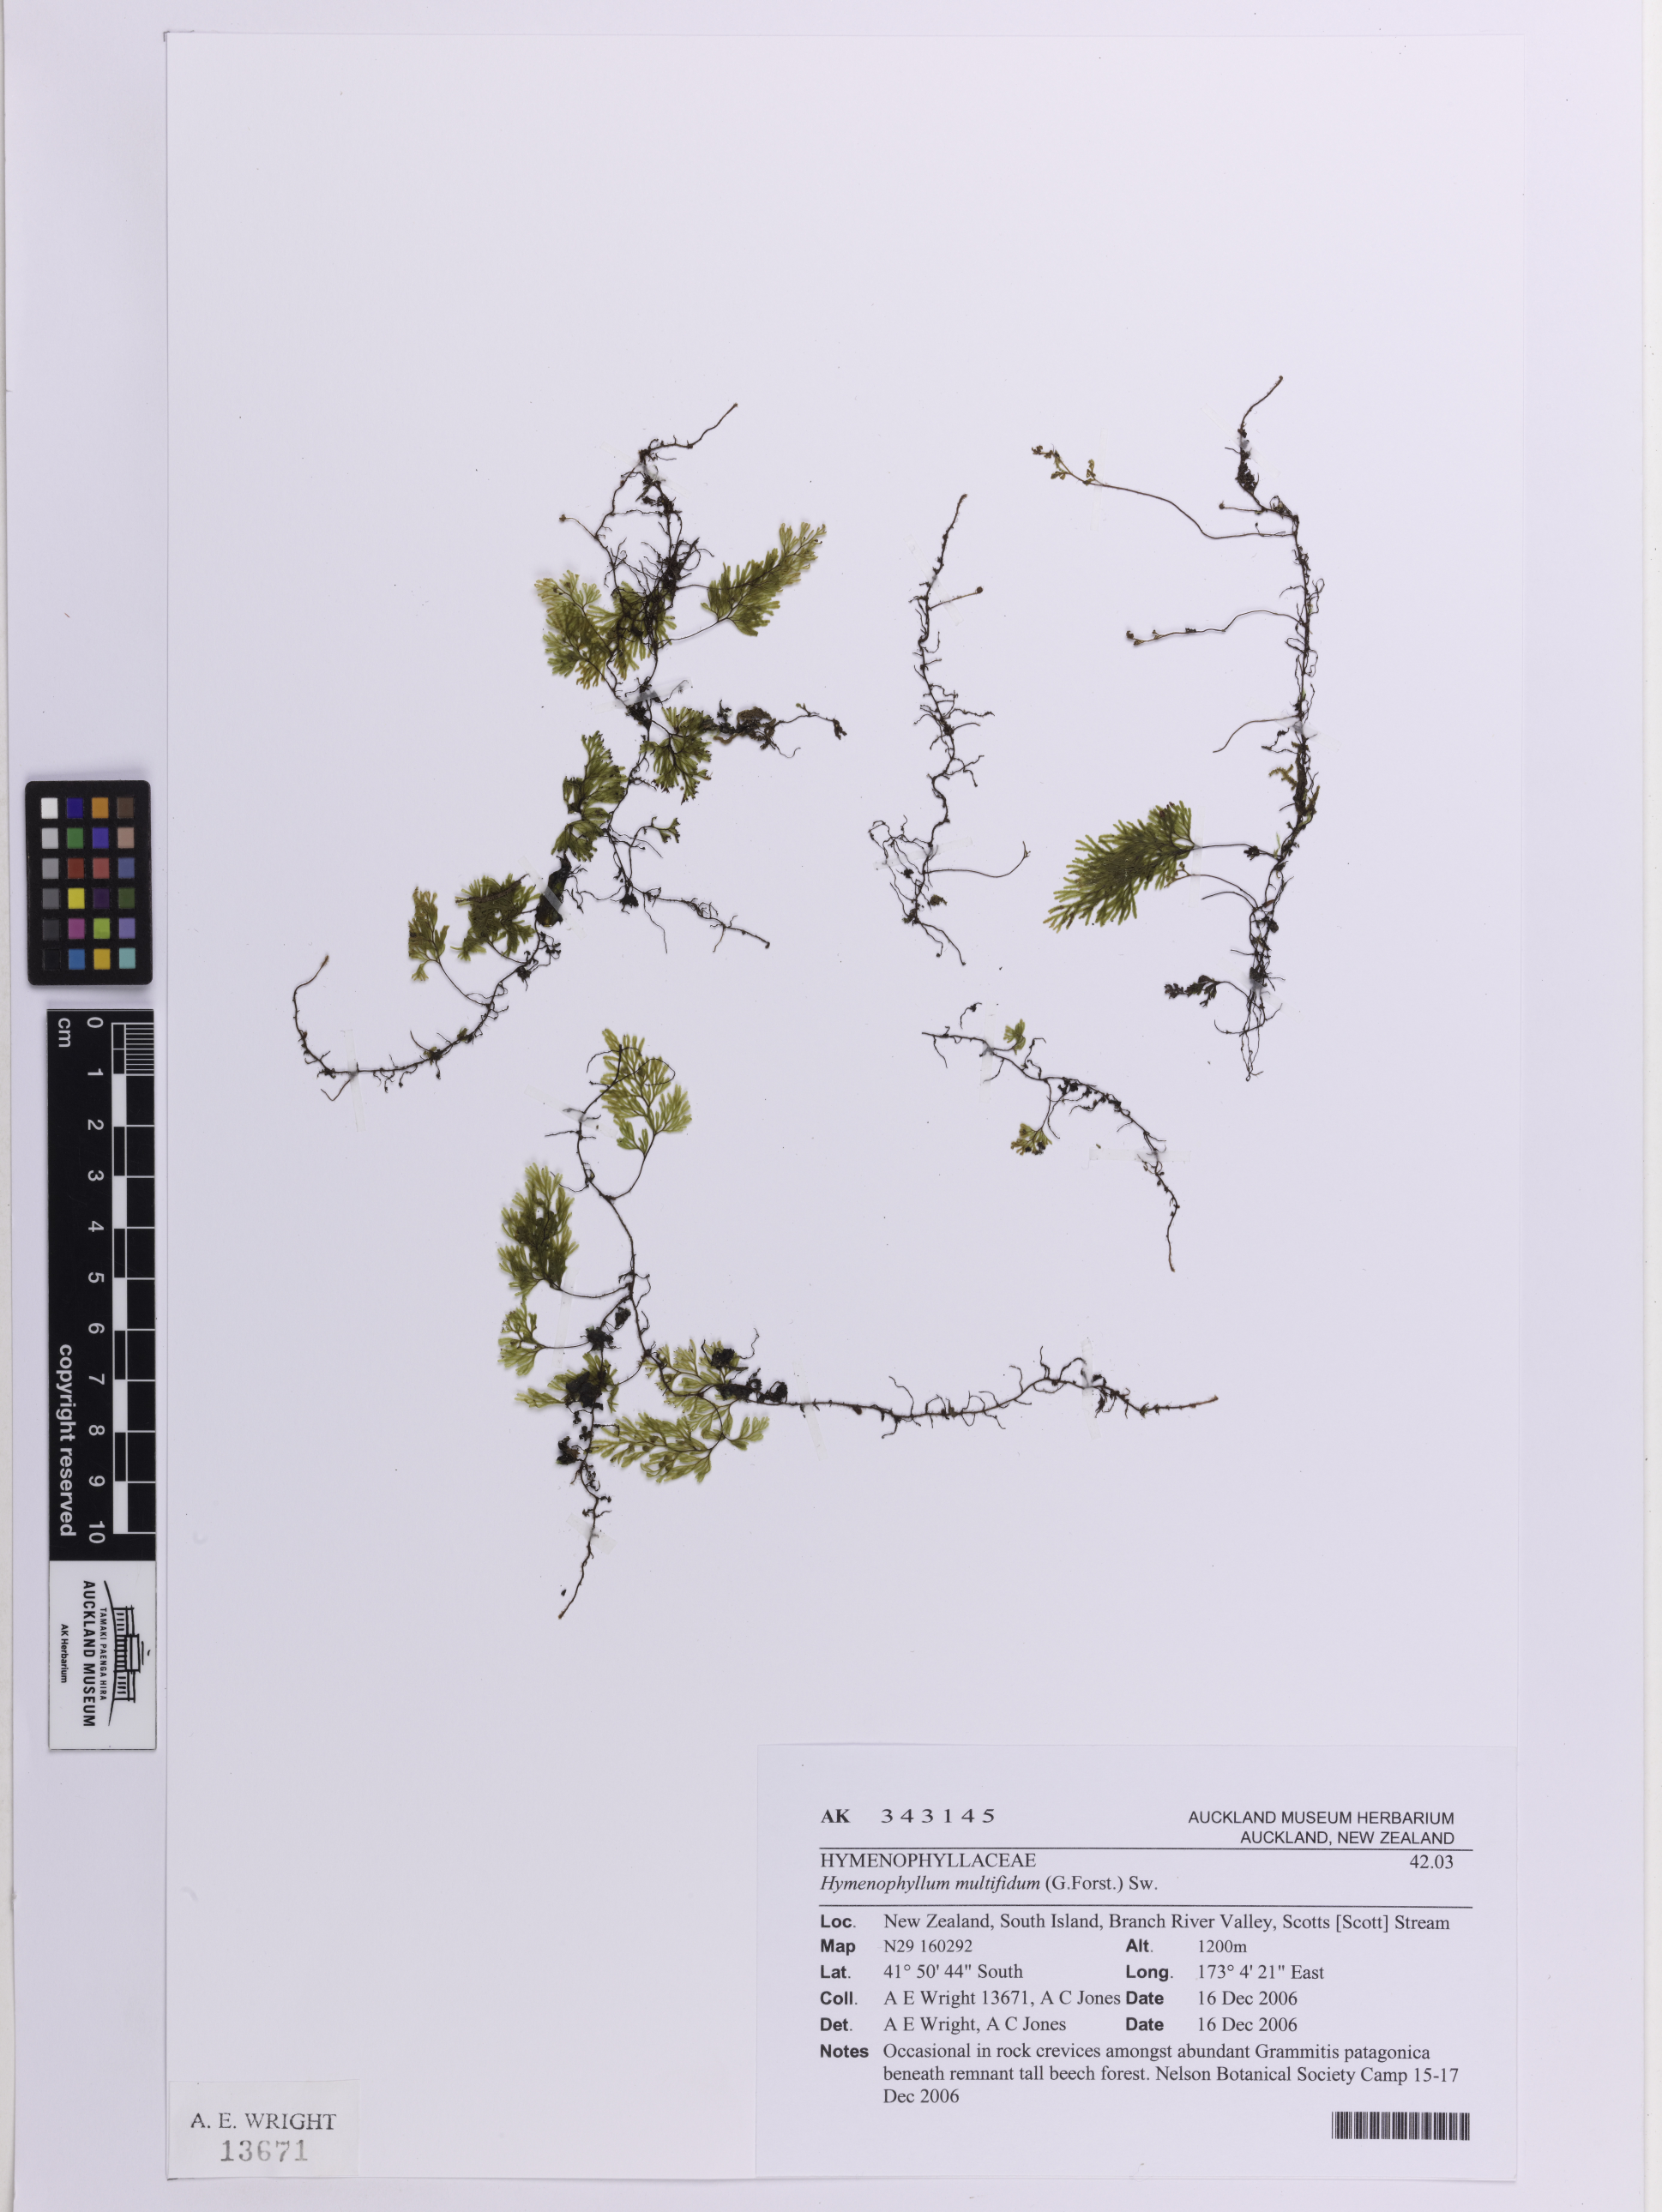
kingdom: Plantae
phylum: Tracheophyta
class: Polypodiopsida
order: Hymenophyllales
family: Hymenophyllaceae
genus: Hymenophyllum
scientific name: Hymenophyllum multifidum
